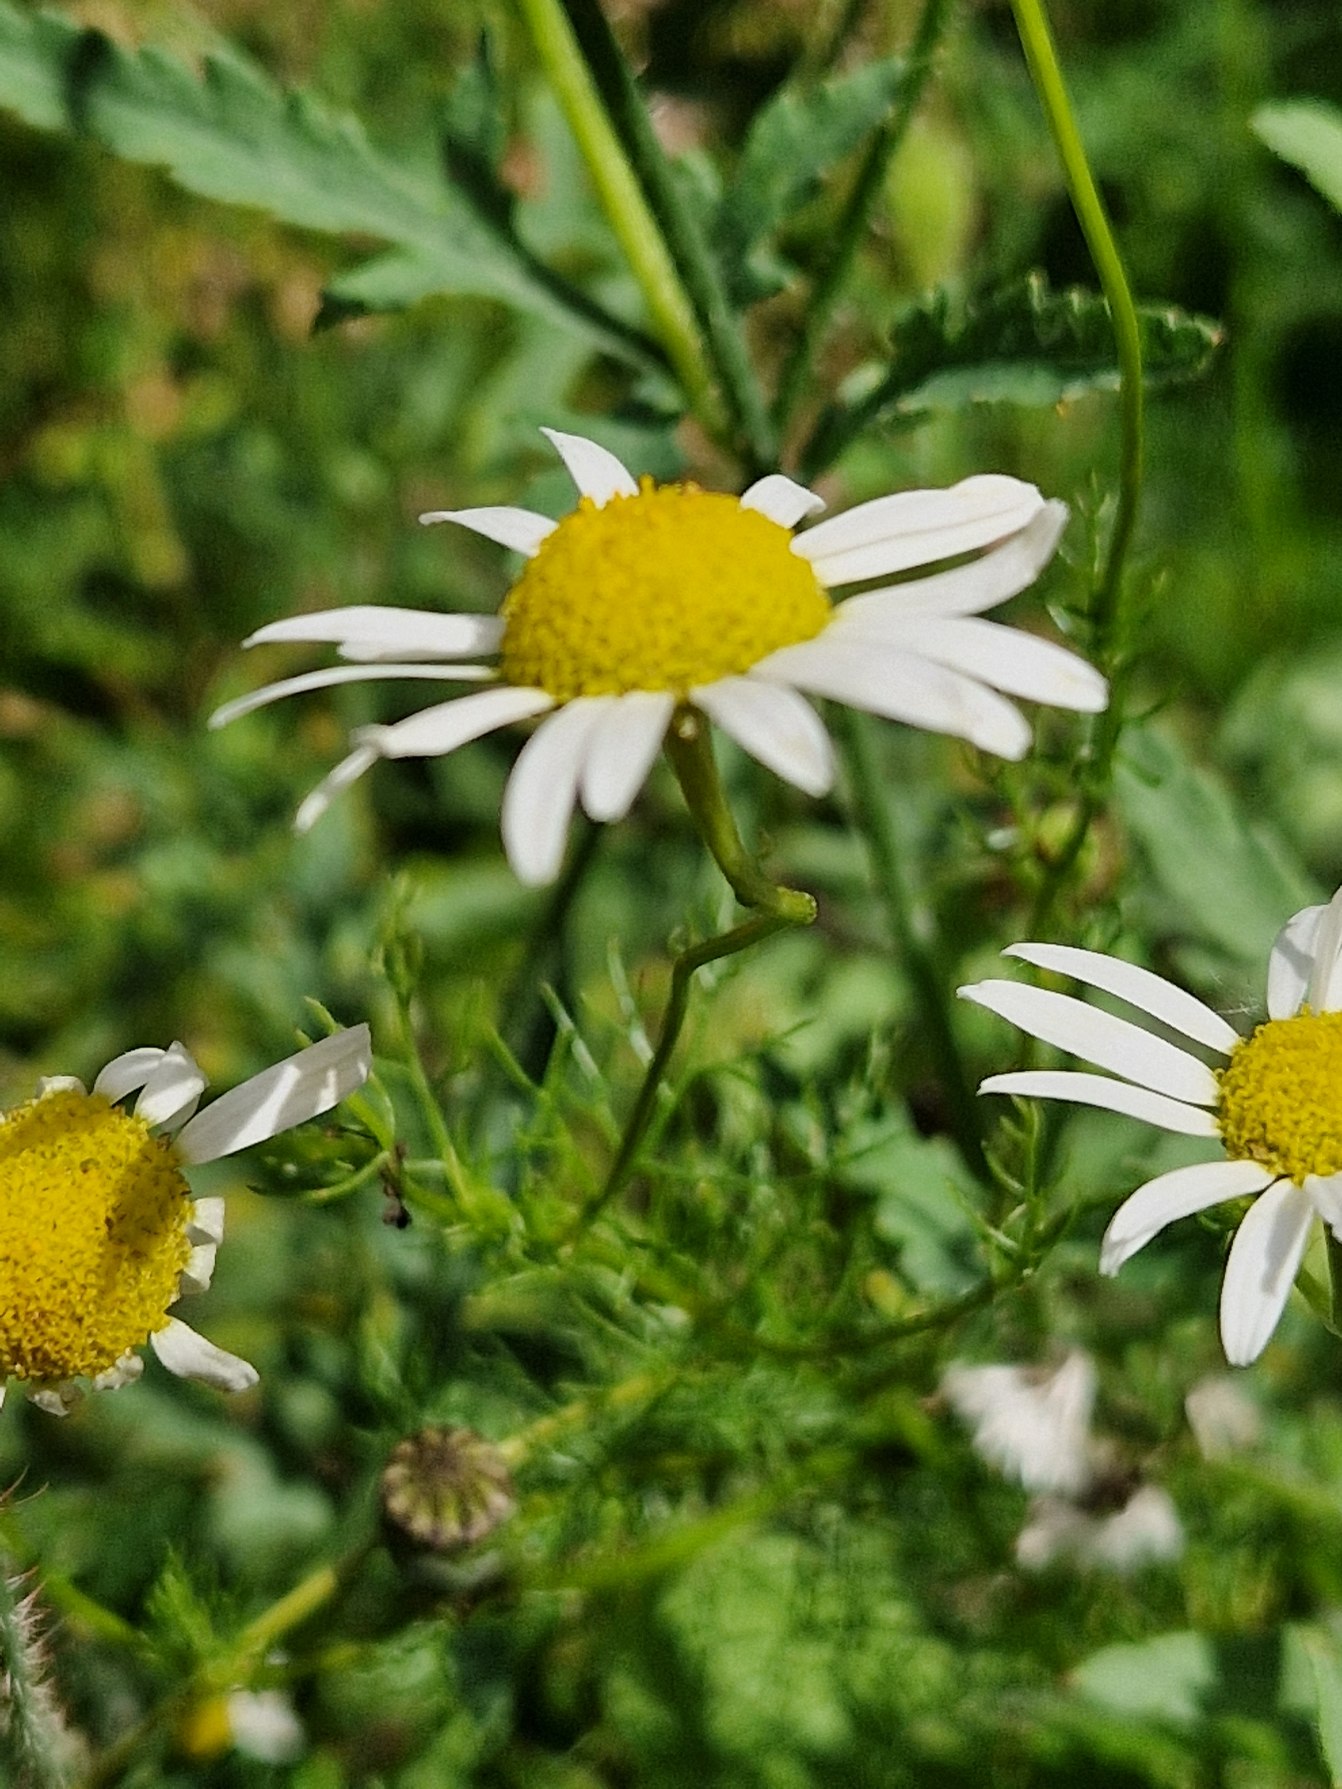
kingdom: Plantae
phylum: Tracheophyta
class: Magnoliopsida
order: Asterales
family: Asteraceae
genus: Tripleurospermum
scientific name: Tripleurospermum inodorum
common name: Lugtløs kamille
